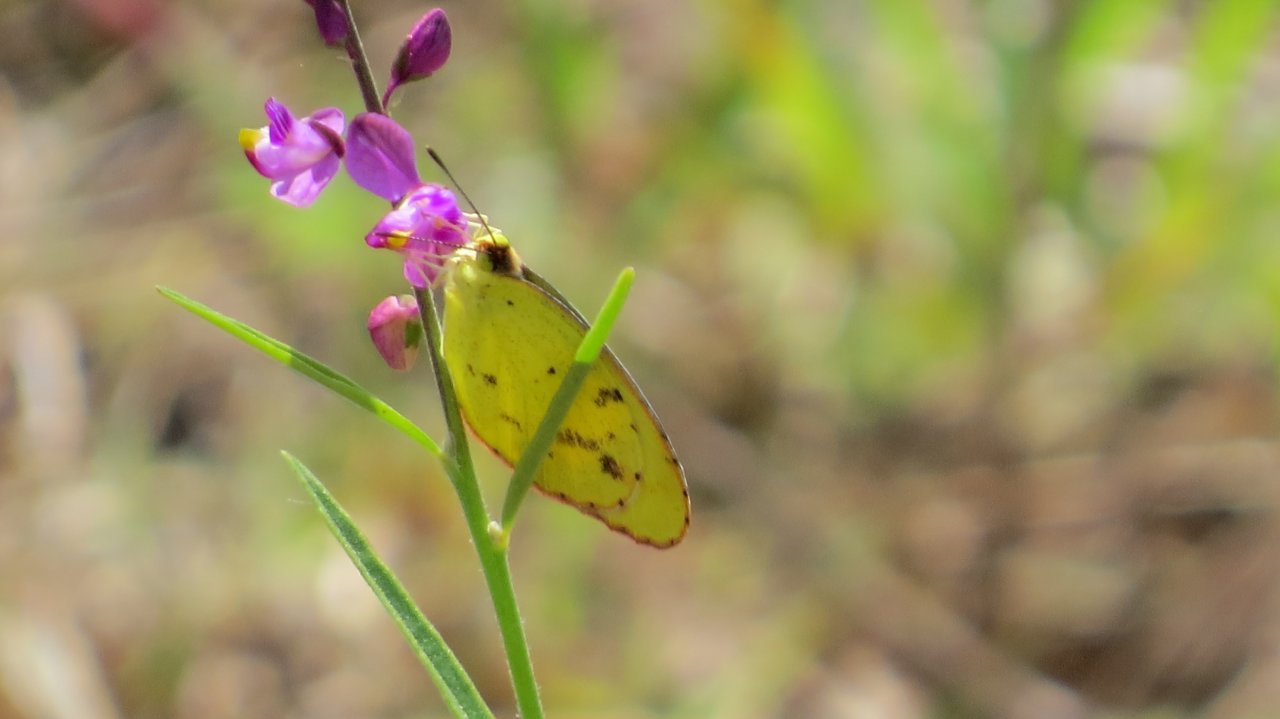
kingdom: Animalia
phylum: Arthropoda
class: Insecta
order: Lepidoptera
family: Pieridae
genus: Pyrisitia
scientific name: Pyrisitia lisa
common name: Little Yellow
